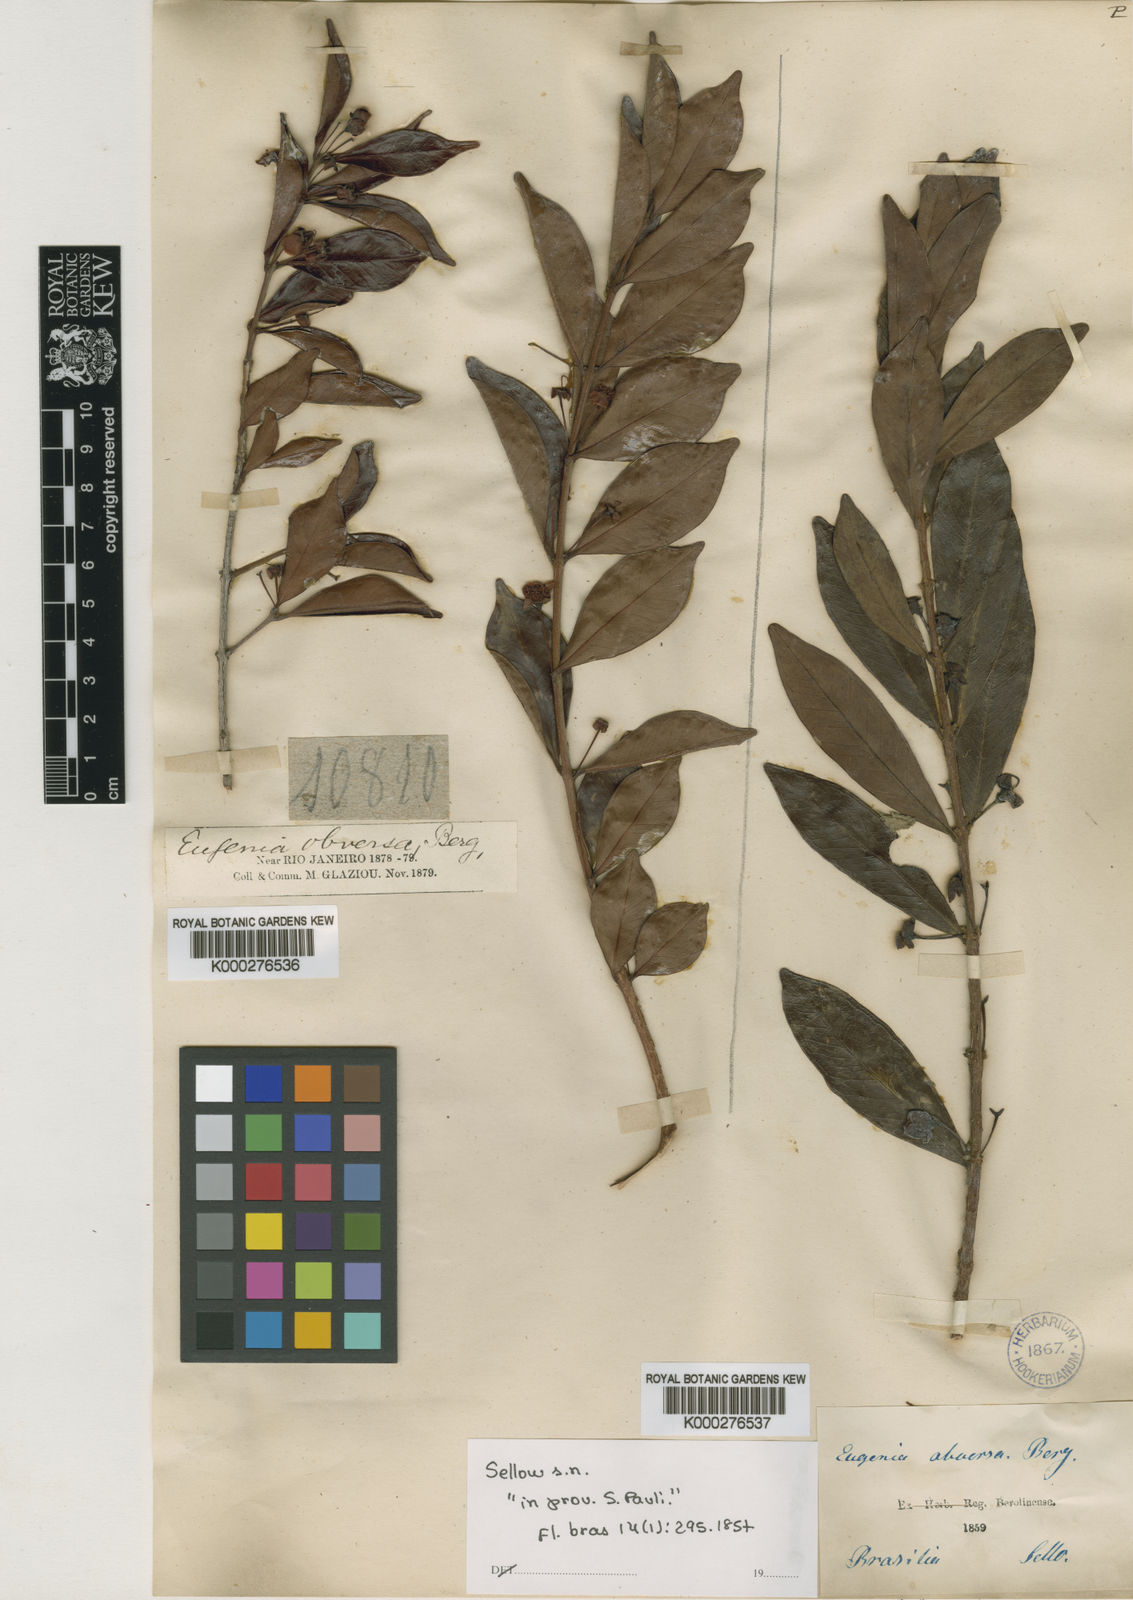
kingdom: Plantae
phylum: Tracheophyta
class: Magnoliopsida
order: Myrtales
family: Myrtaceae
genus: Eugenia
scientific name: Eugenia punicifolia
